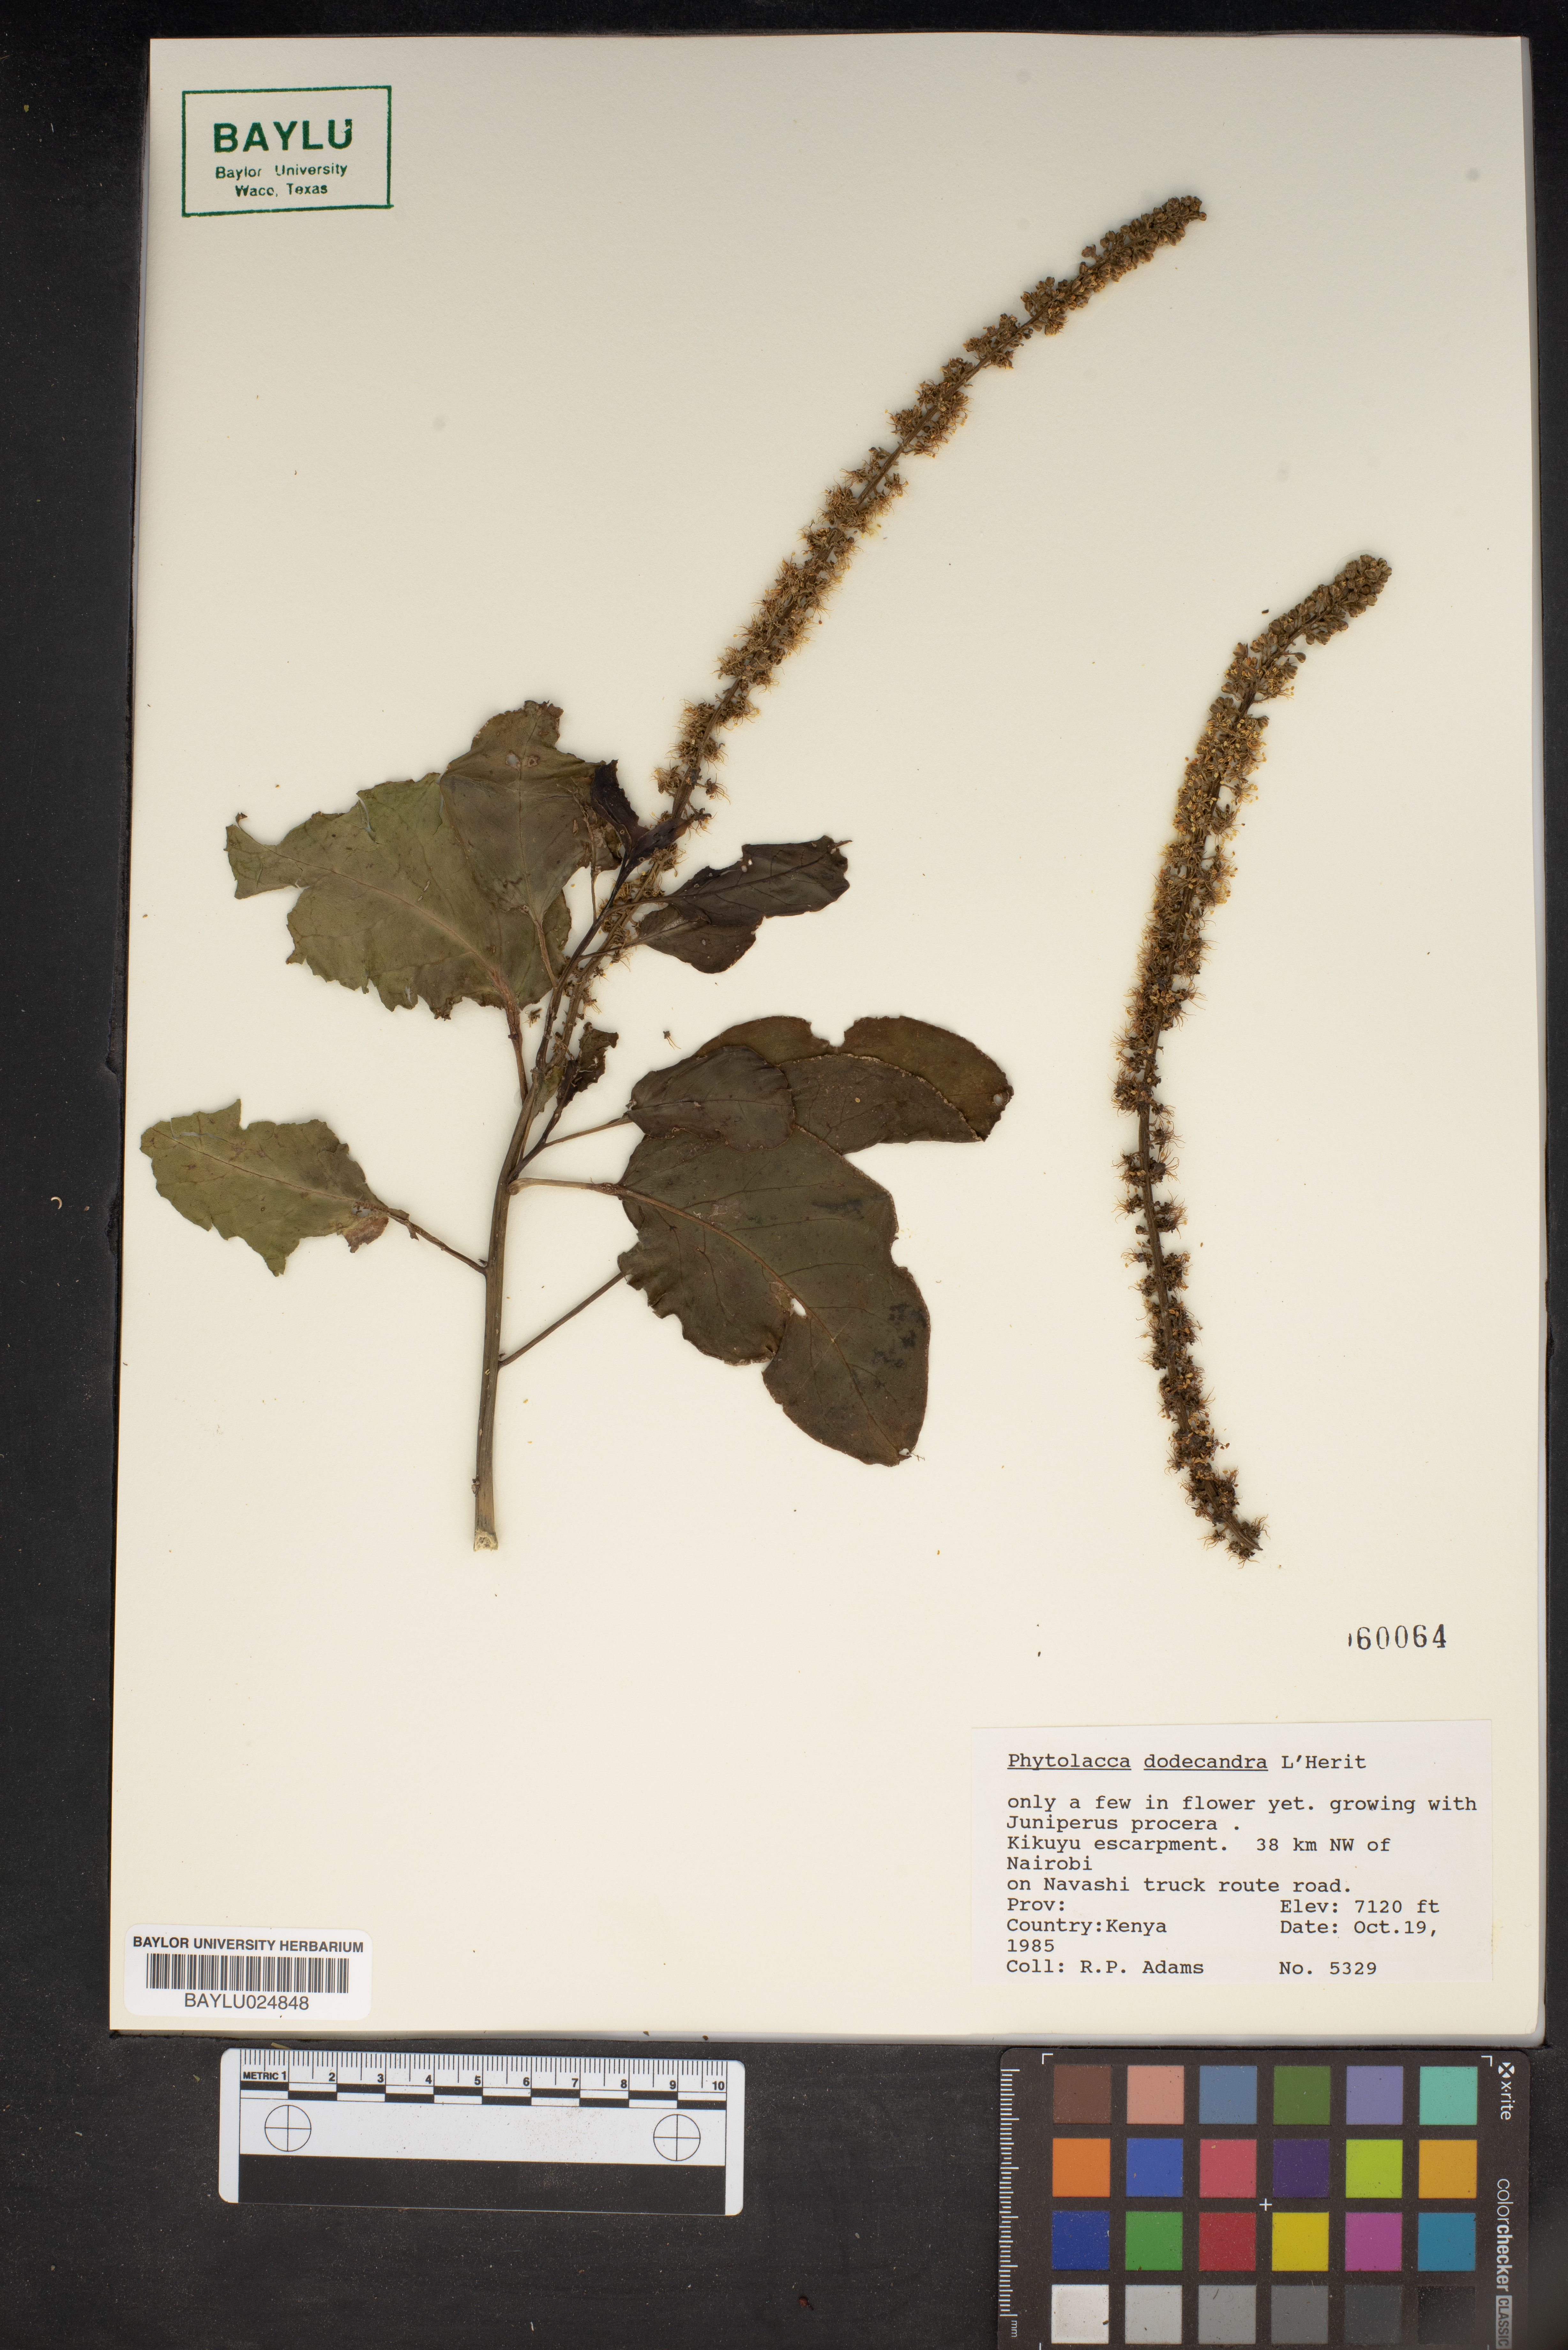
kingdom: Plantae
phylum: Tracheophyta
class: Magnoliopsida
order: Caryophyllales
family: Phytolaccaceae
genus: Phytolacca
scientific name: Phytolacca dodecandra
